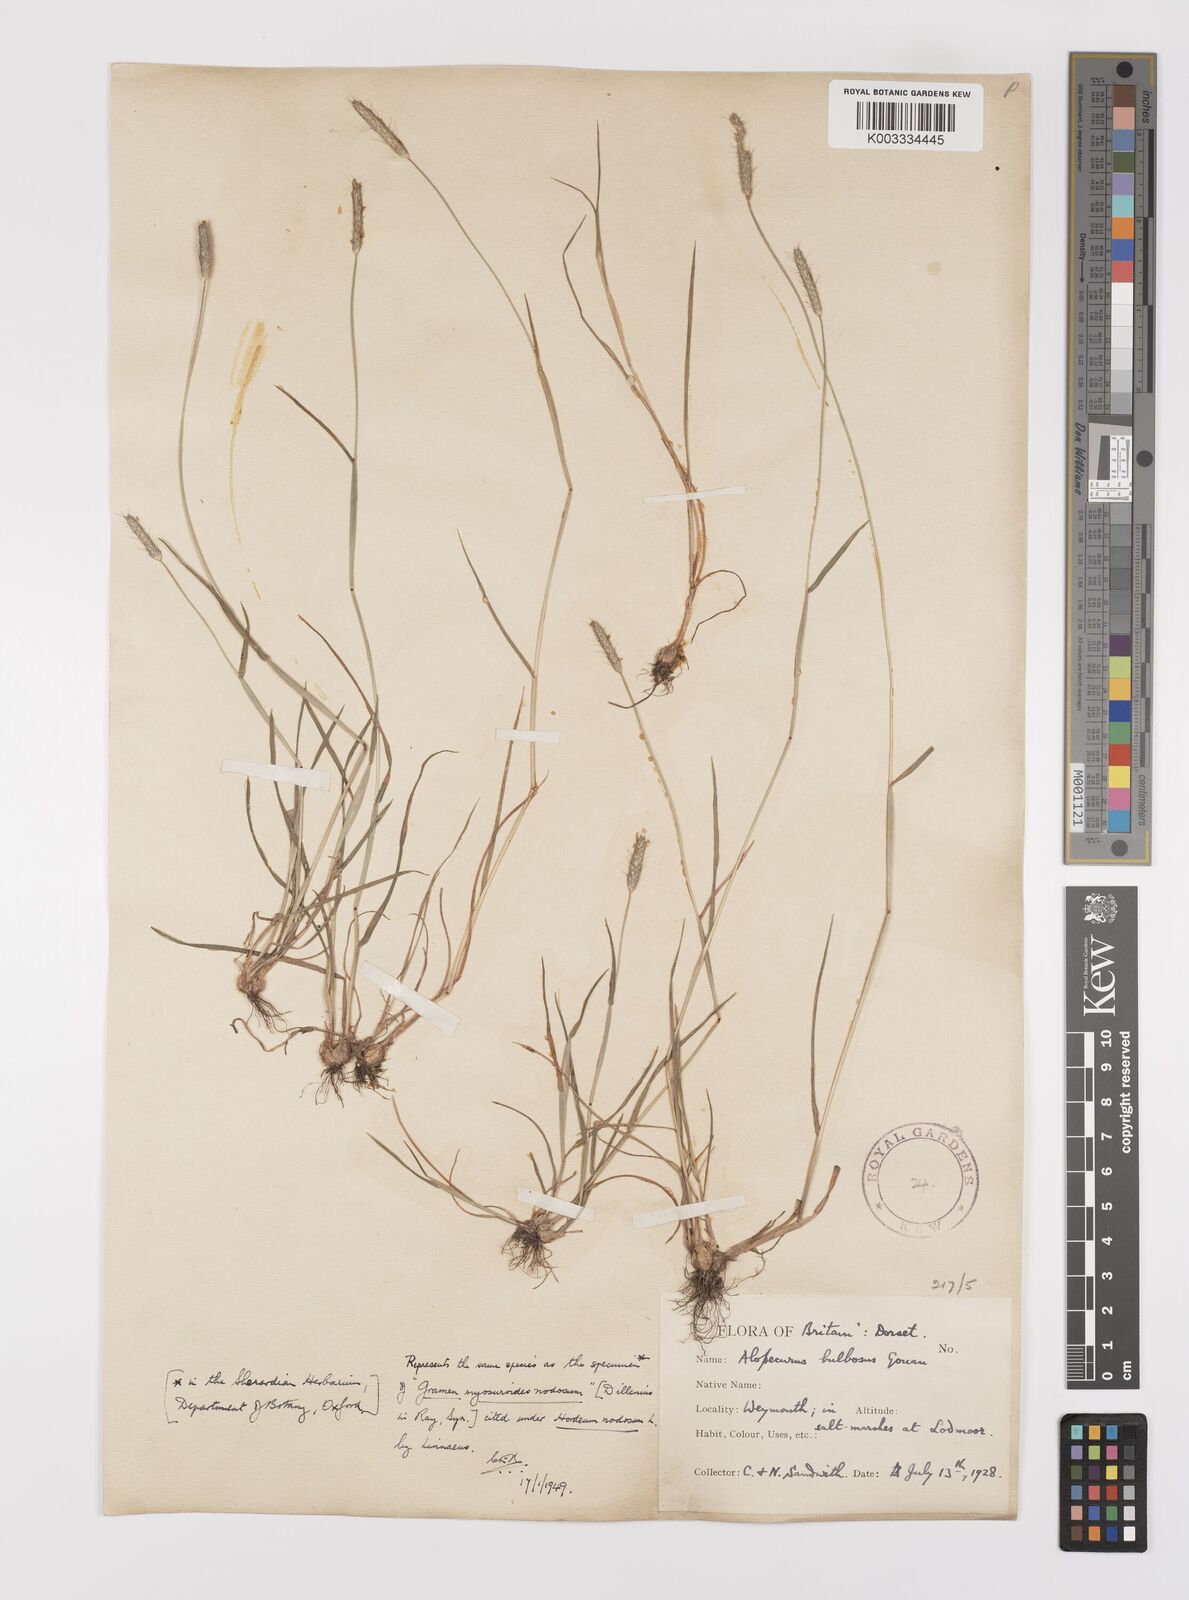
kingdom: Plantae
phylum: Tracheophyta
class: Liliopsida
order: Poales
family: Poaceae
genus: Alopecurus
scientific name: Alopecurus bulbosus
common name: Bulbous foxtail
